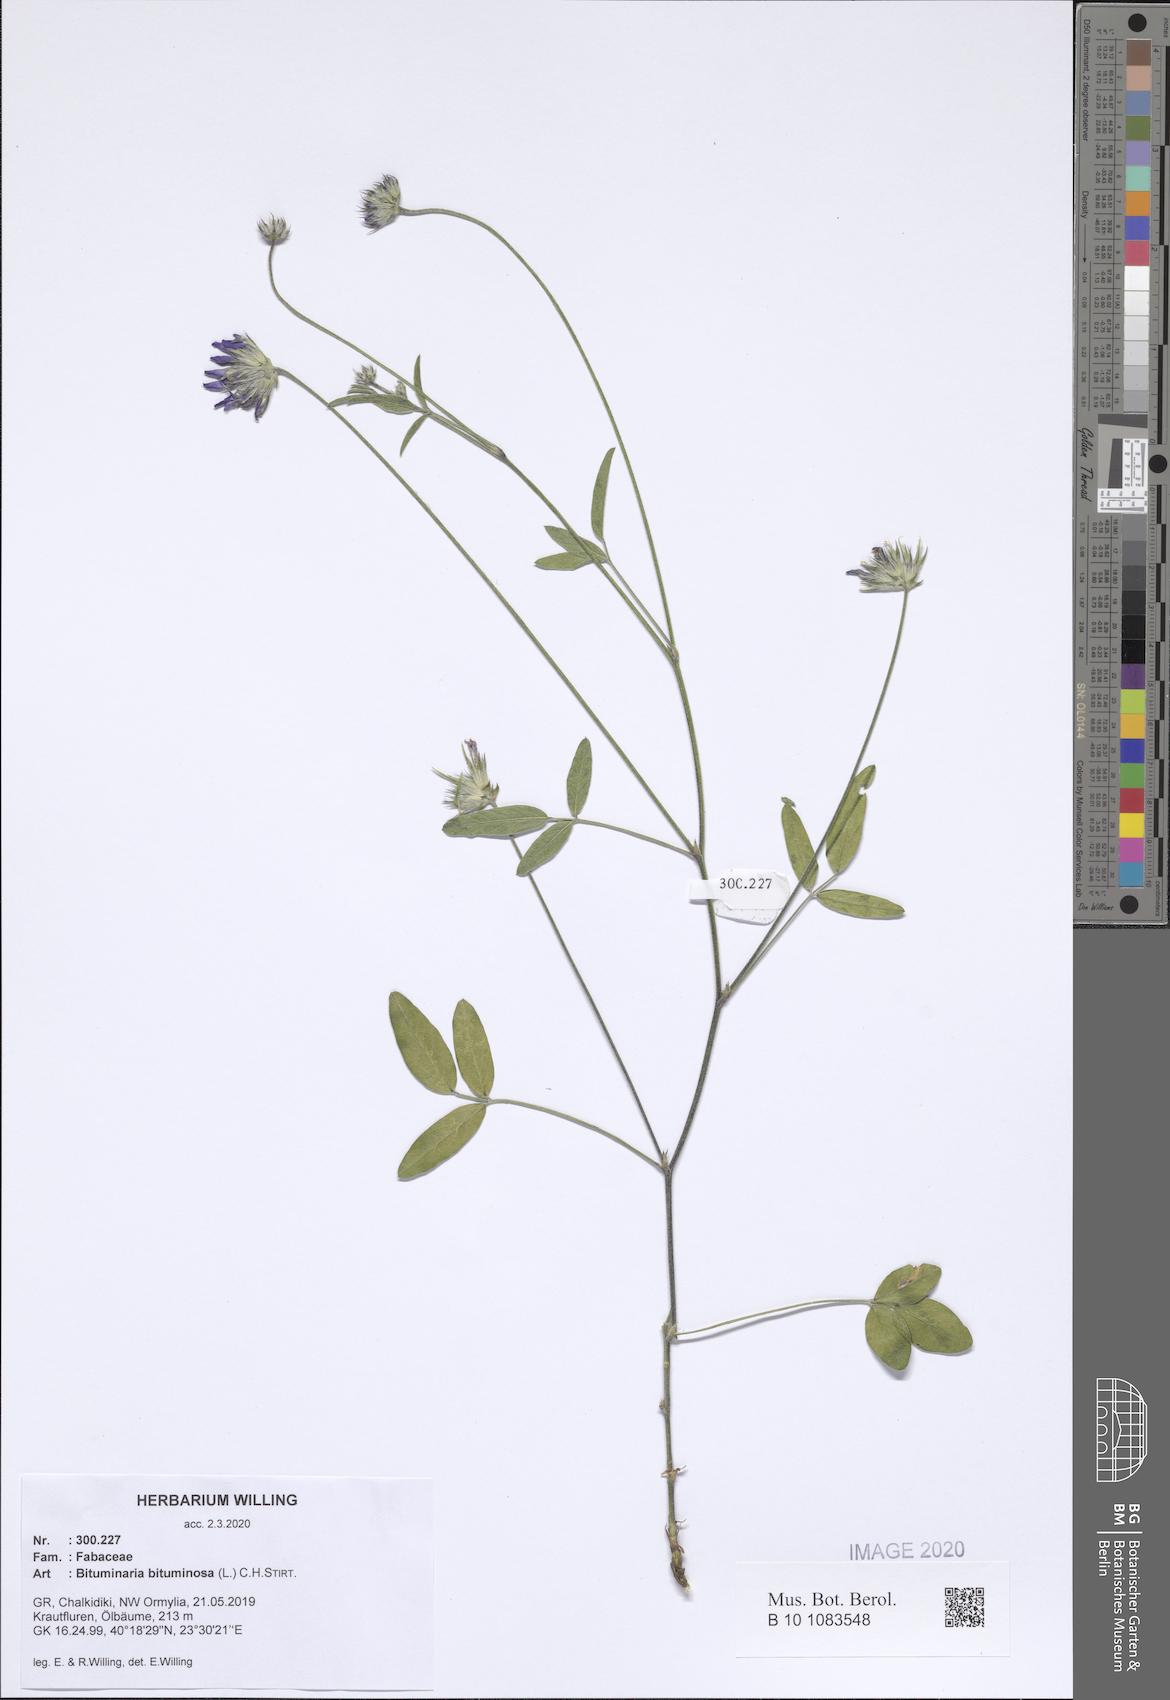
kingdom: Plantae
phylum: Tracheophyta
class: Magnoliopsida
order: Fabales
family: Fabaceae
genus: Bituminaria
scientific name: Bituminaria bituminosa
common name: Arabian pea
